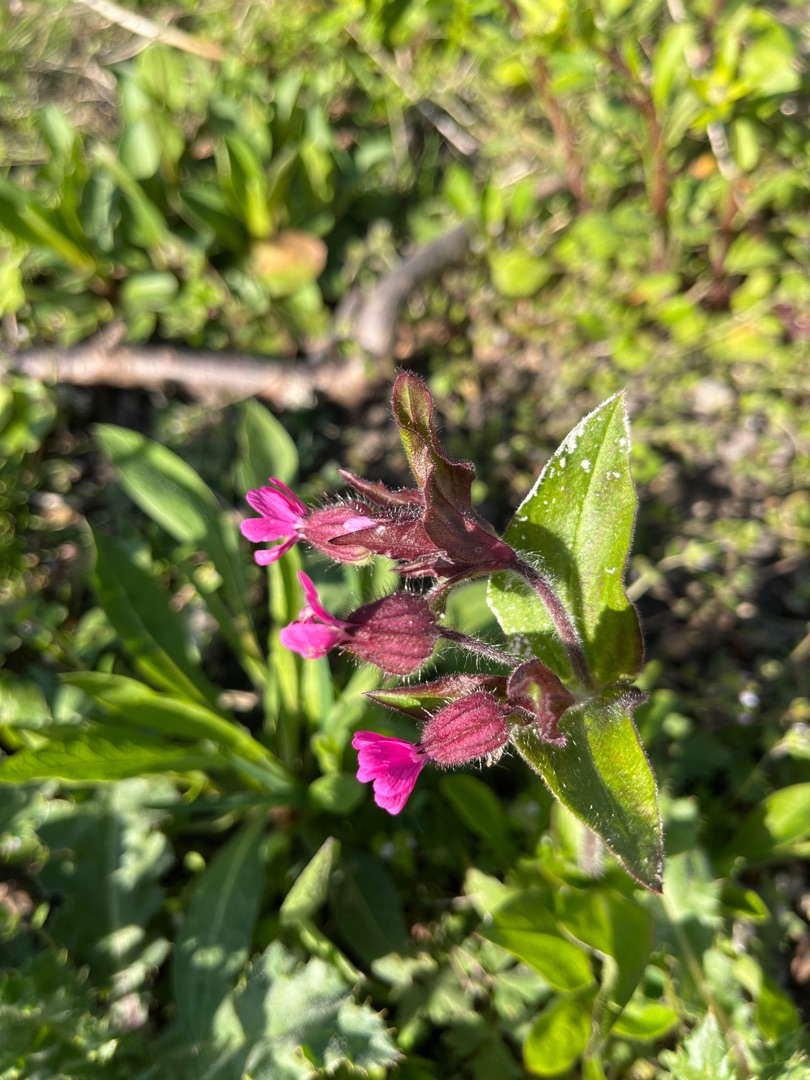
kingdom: Plantae
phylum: Tracheophyta
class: Magnoliopsida
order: Caryophyllales
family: Caryophyllaceae
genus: Silene
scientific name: Silene dioica
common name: Dagpragtstjerne
